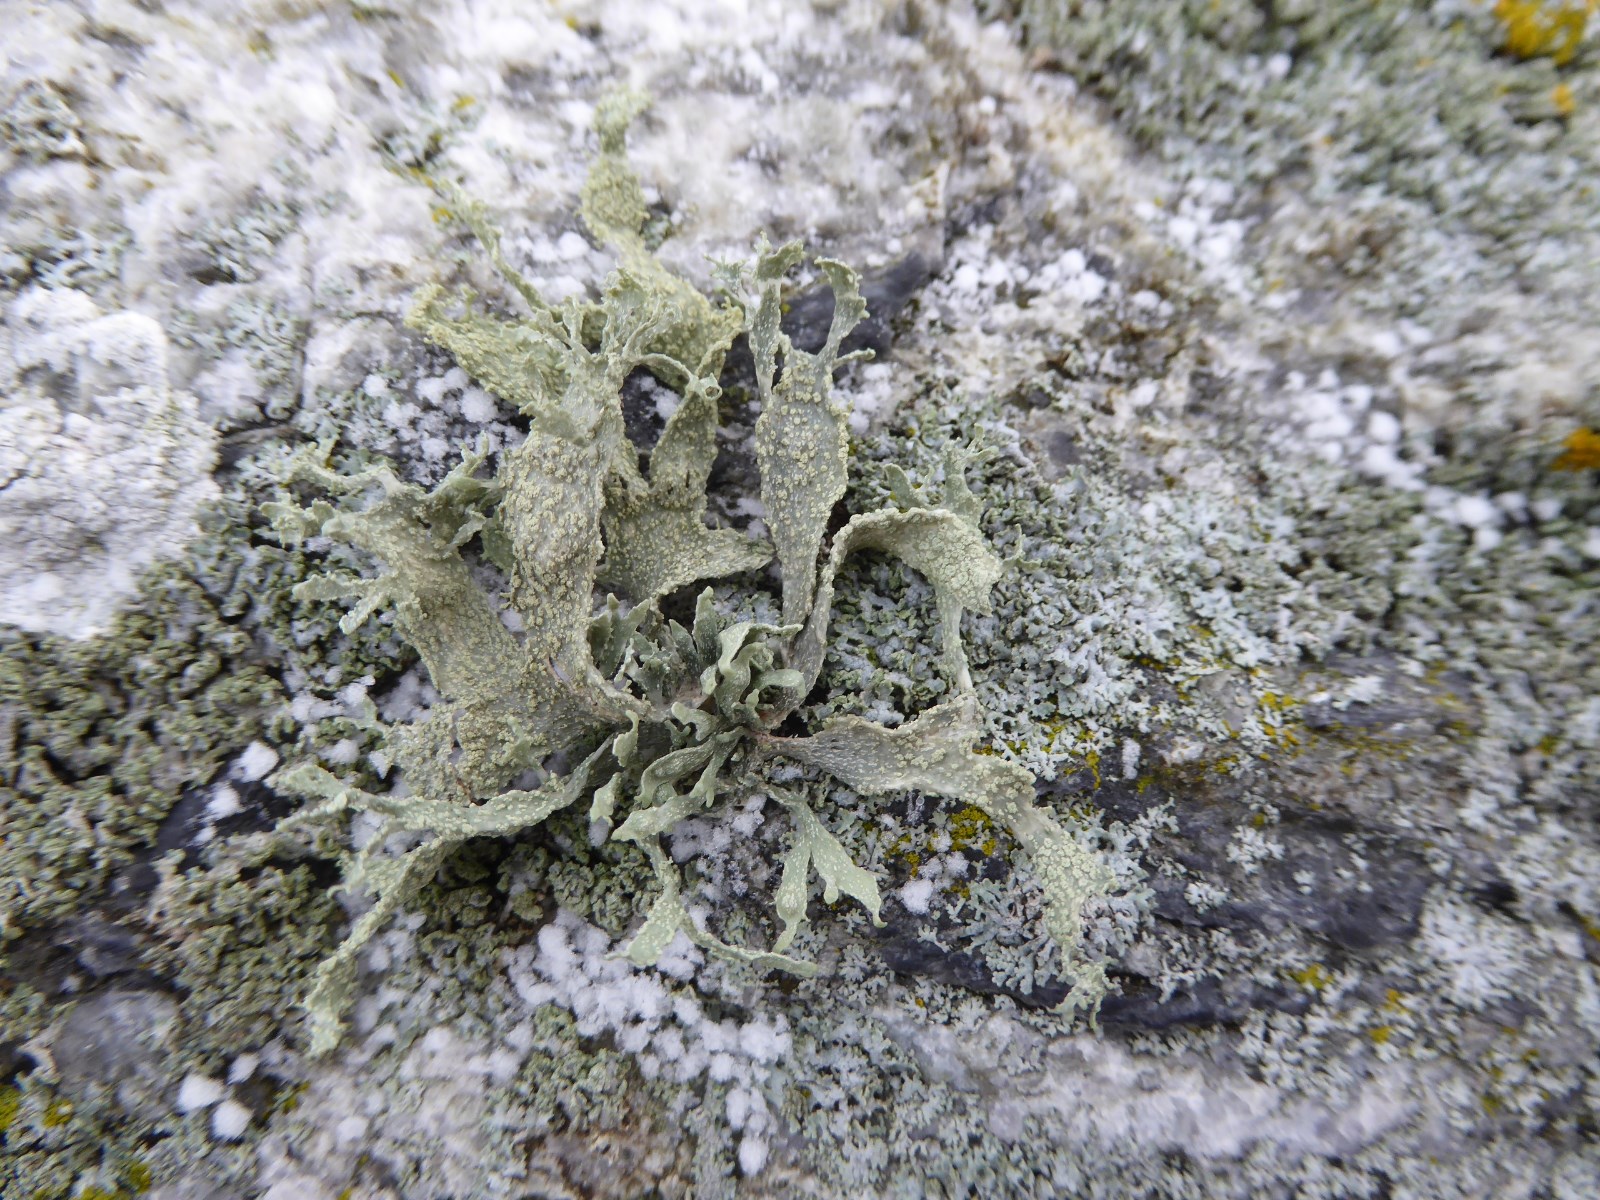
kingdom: Fungi
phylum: Ascomycota
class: Lecanoromycetes
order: Lecanorales
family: Ramalinaceae
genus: Ramalina
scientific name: Ramalina polymorpha
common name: kornet grenlav
